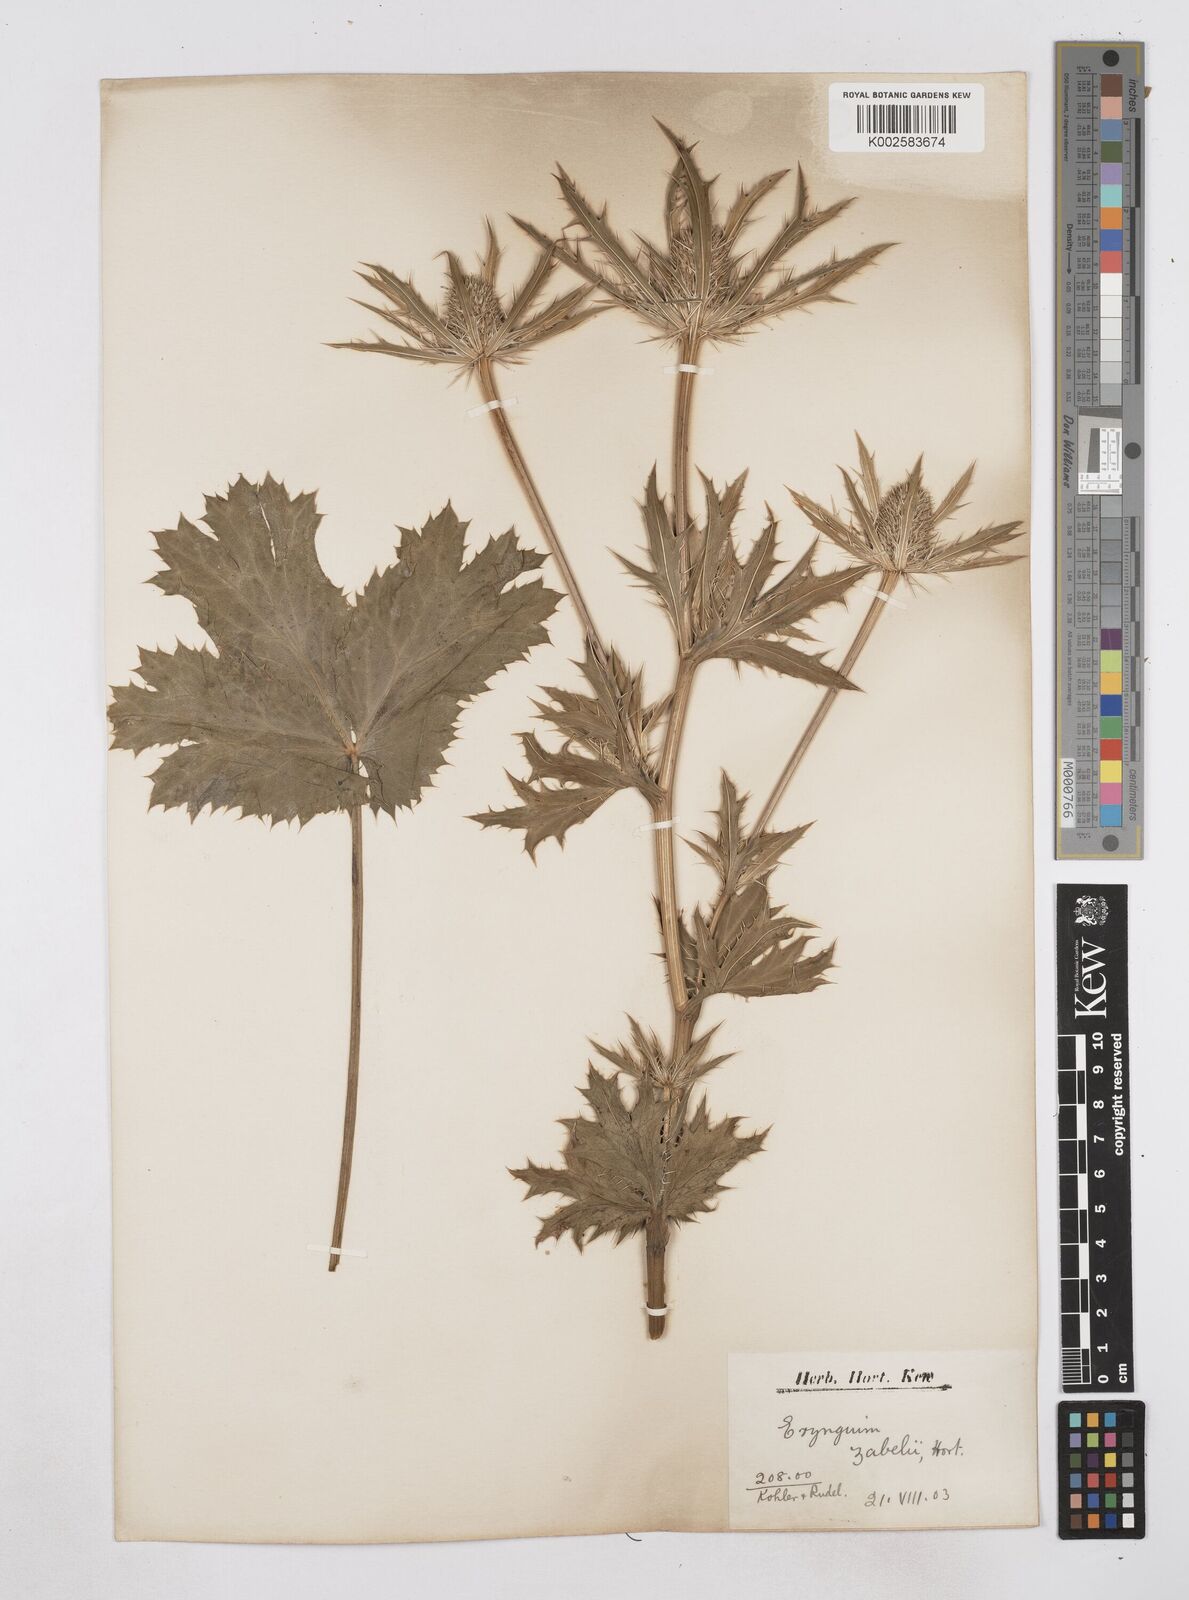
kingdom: Plantae
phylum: Tracheophyta
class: Magnoliopsida
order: Apiales
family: Apiaceae
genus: Eryngium
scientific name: Eryngium oliverianum
